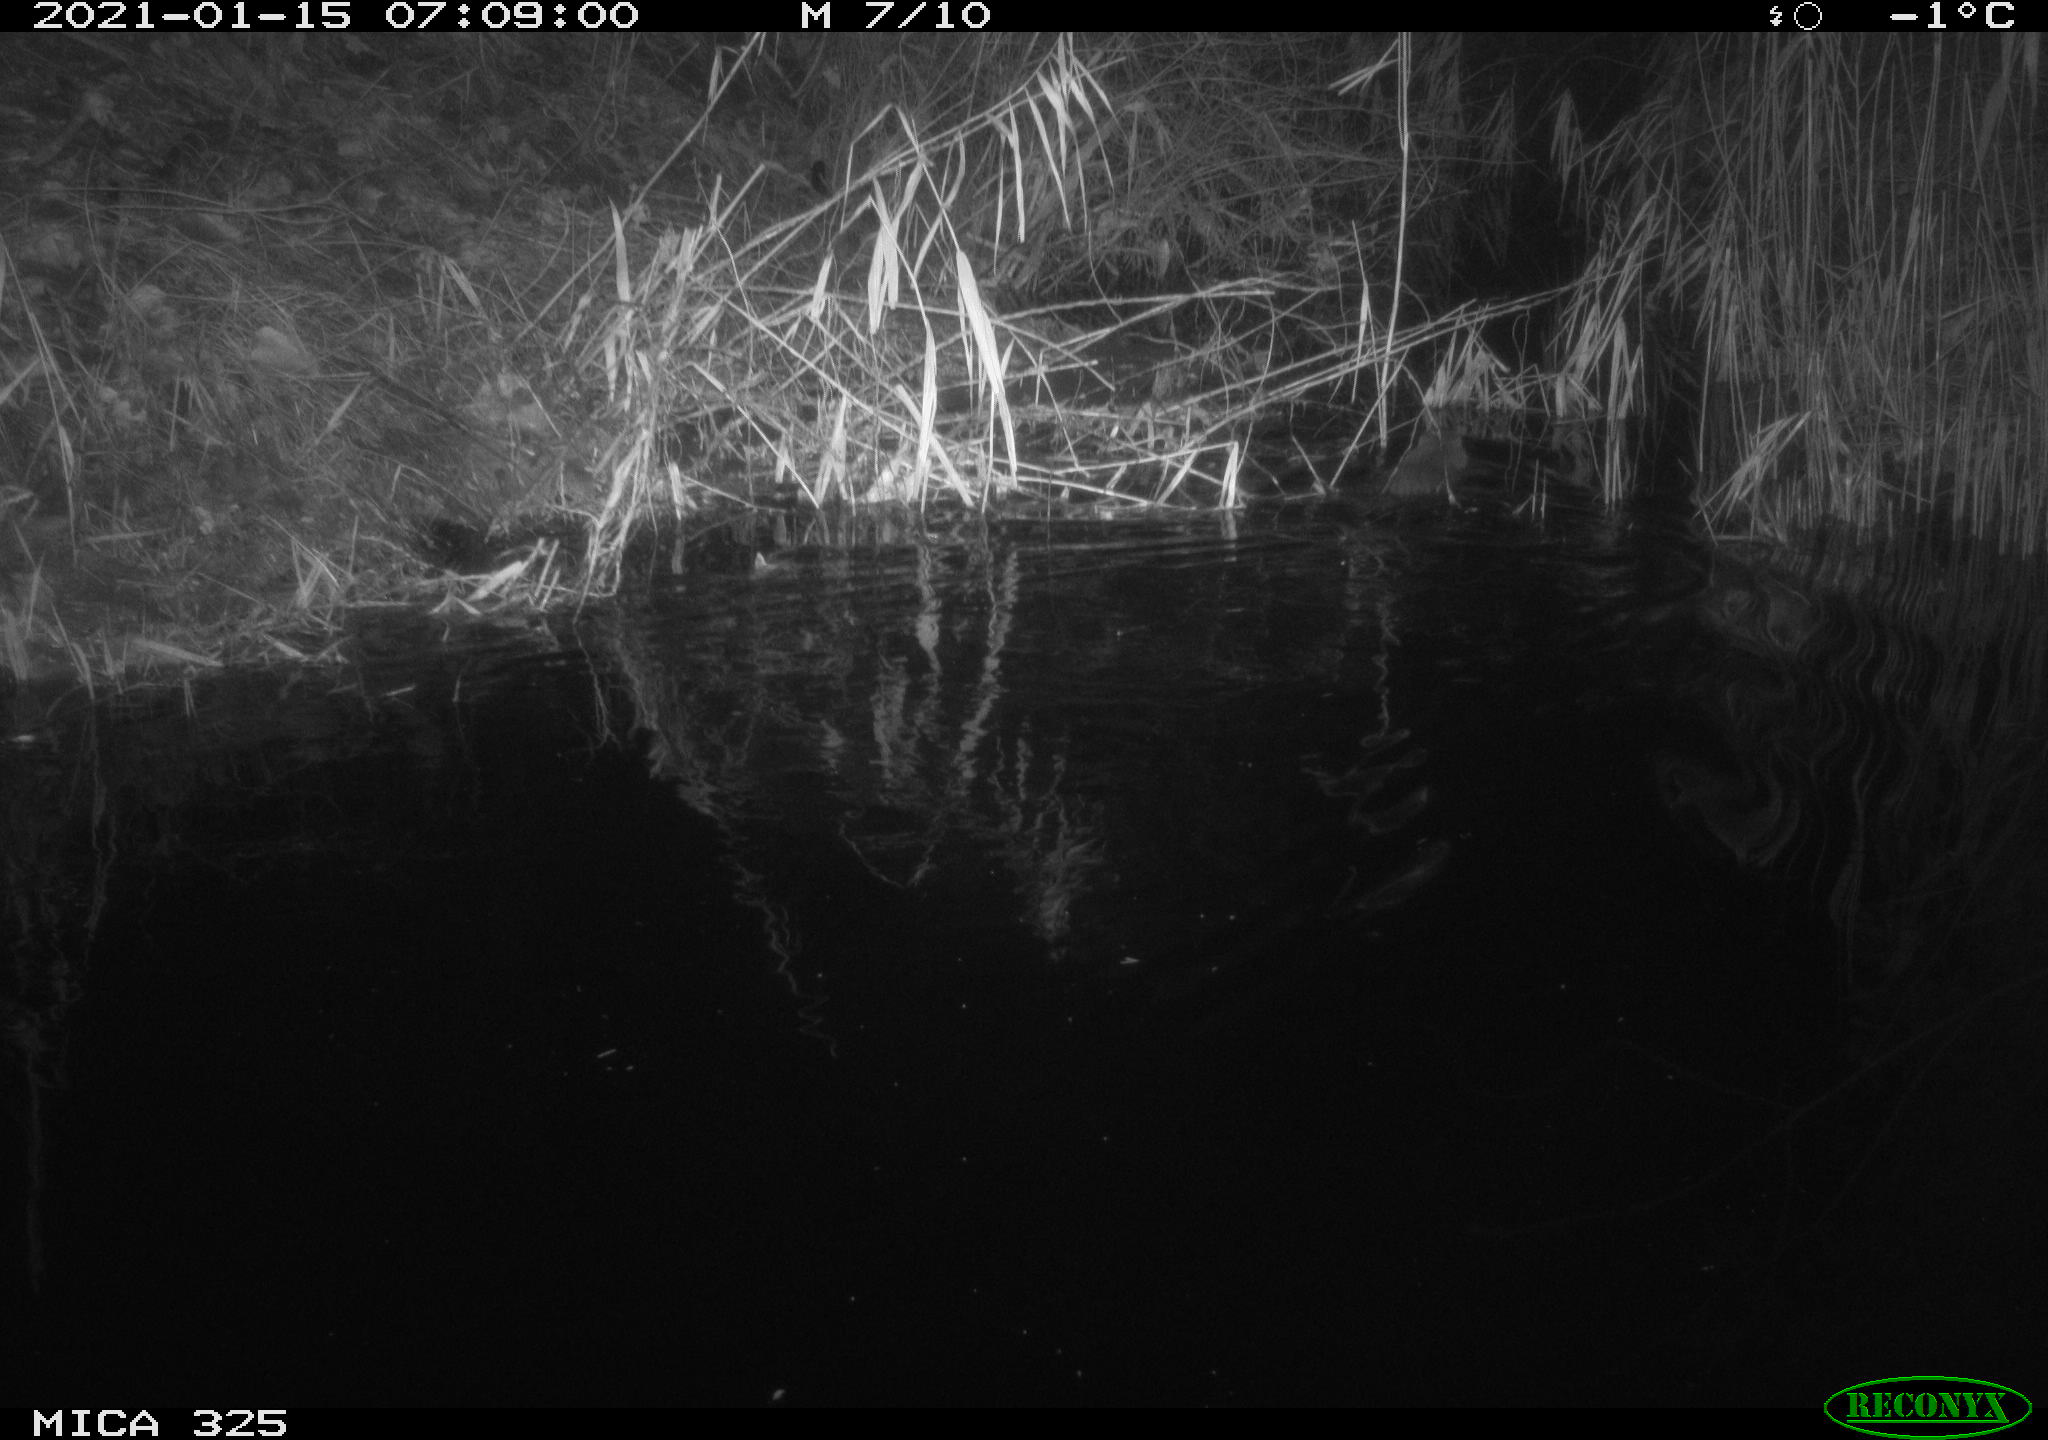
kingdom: Animalia
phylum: Chordata
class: Mammalia
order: Rodentia
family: Myocastoridae
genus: Myocastor
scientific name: Myocastor coypus
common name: Coypu
